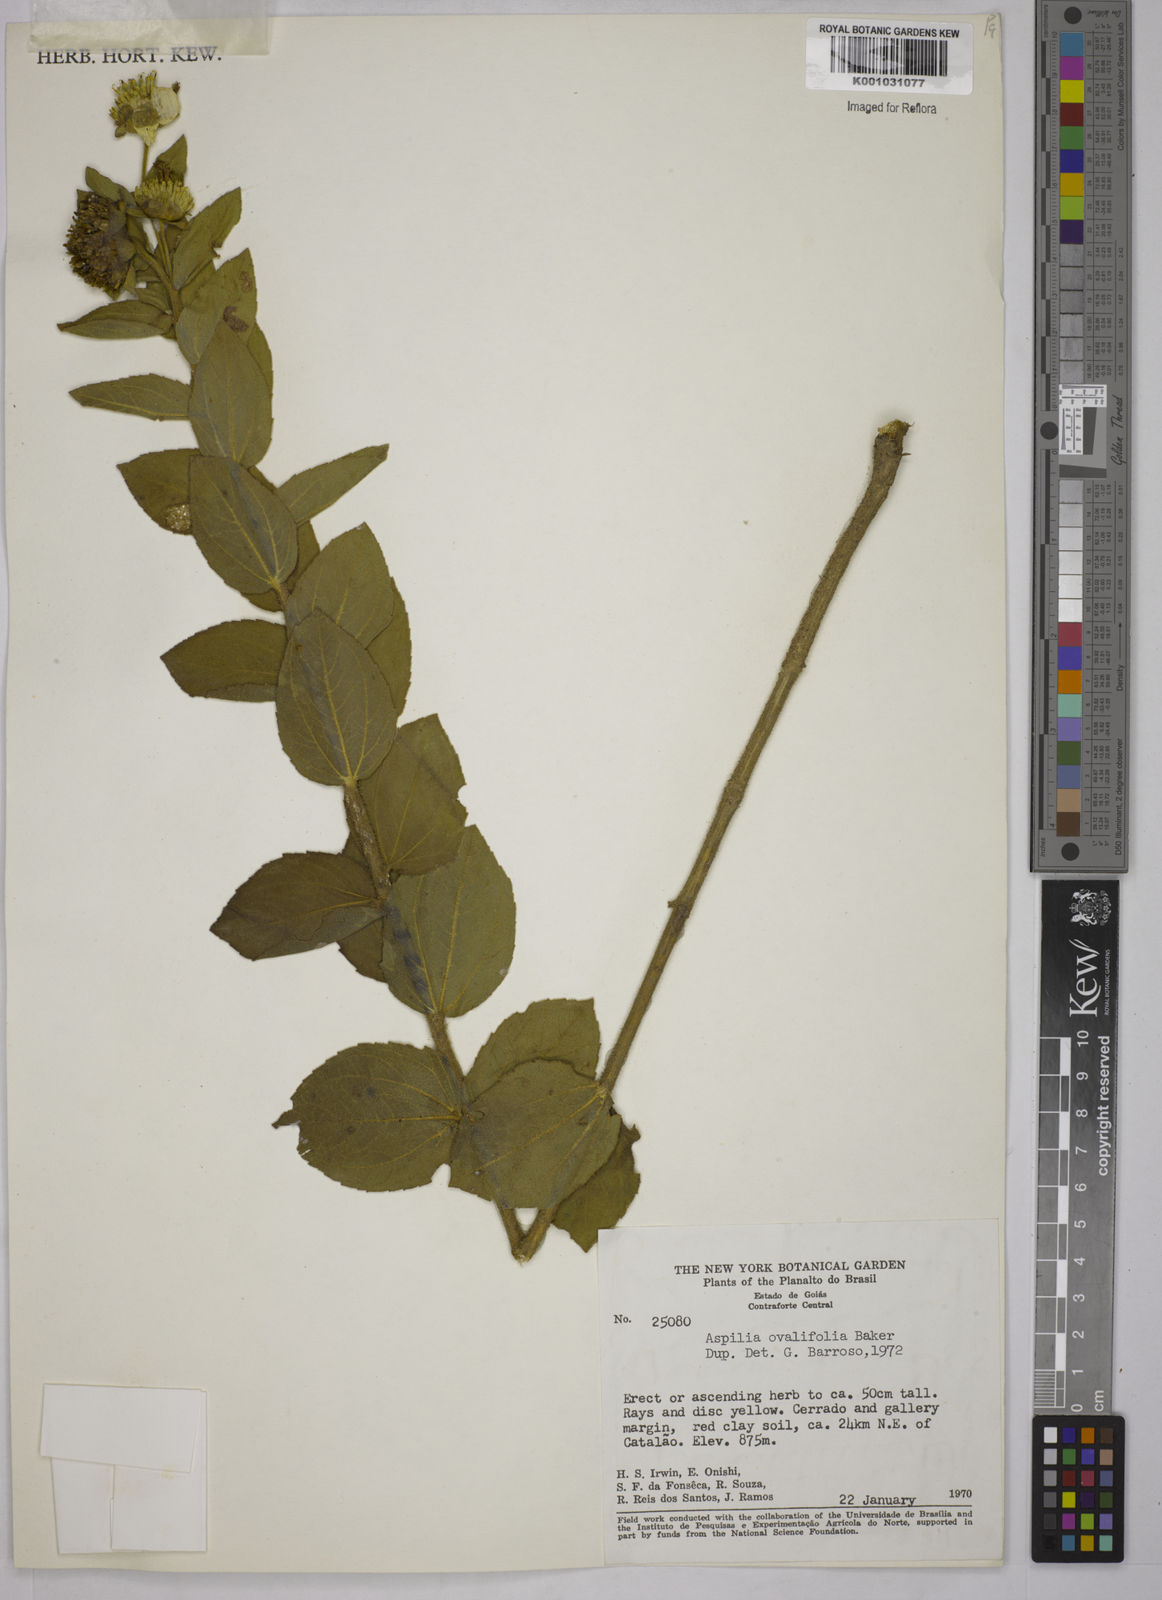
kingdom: Plantae
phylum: Tracheophyta
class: Magnoliopsida
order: Asterales
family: Asteraceae
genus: Wedelia
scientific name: Wedelia ovalifolia
